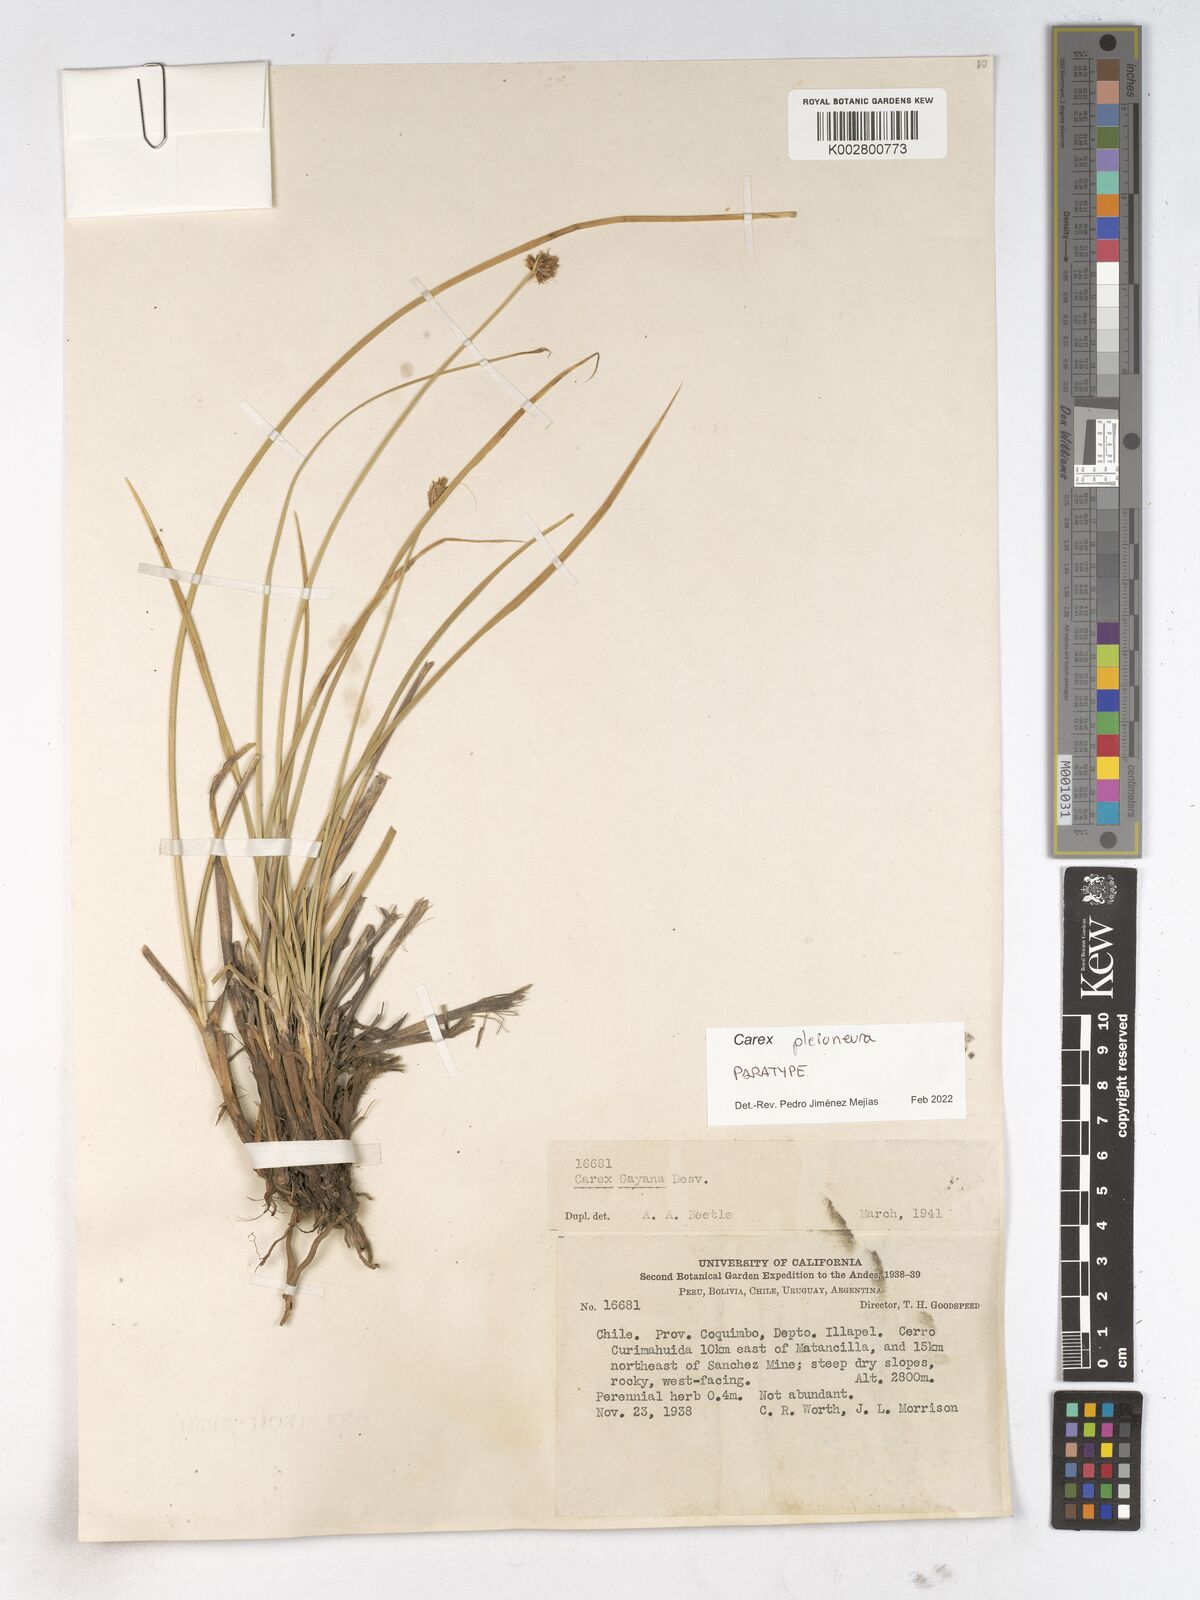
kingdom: Plantae
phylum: Tracheophyta
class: Liliopsida
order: Poales
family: Cyperaceae
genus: Carex
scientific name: Carex pleioneura
